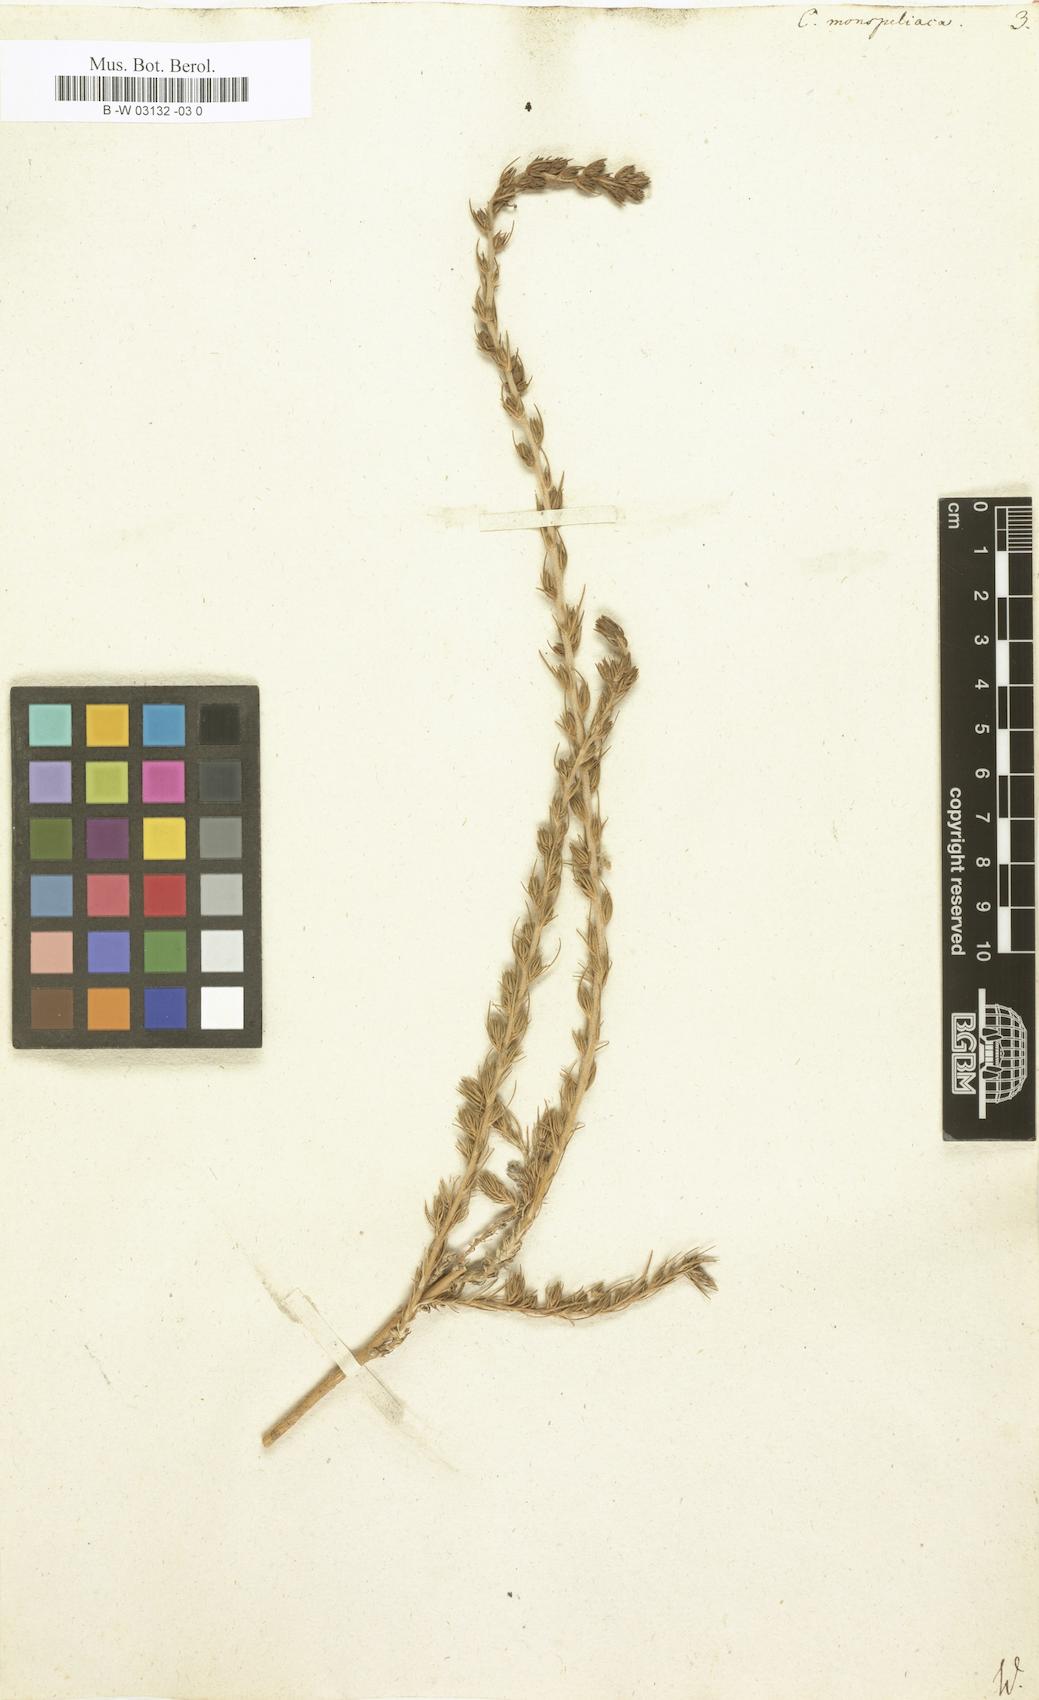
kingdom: Plantae
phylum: Tracheophyta
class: Magnoliopsida
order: Caryophyllales
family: Amaranthaceae
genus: Camphorosma
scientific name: Camphorosma monspeliaca
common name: Camphorfume
